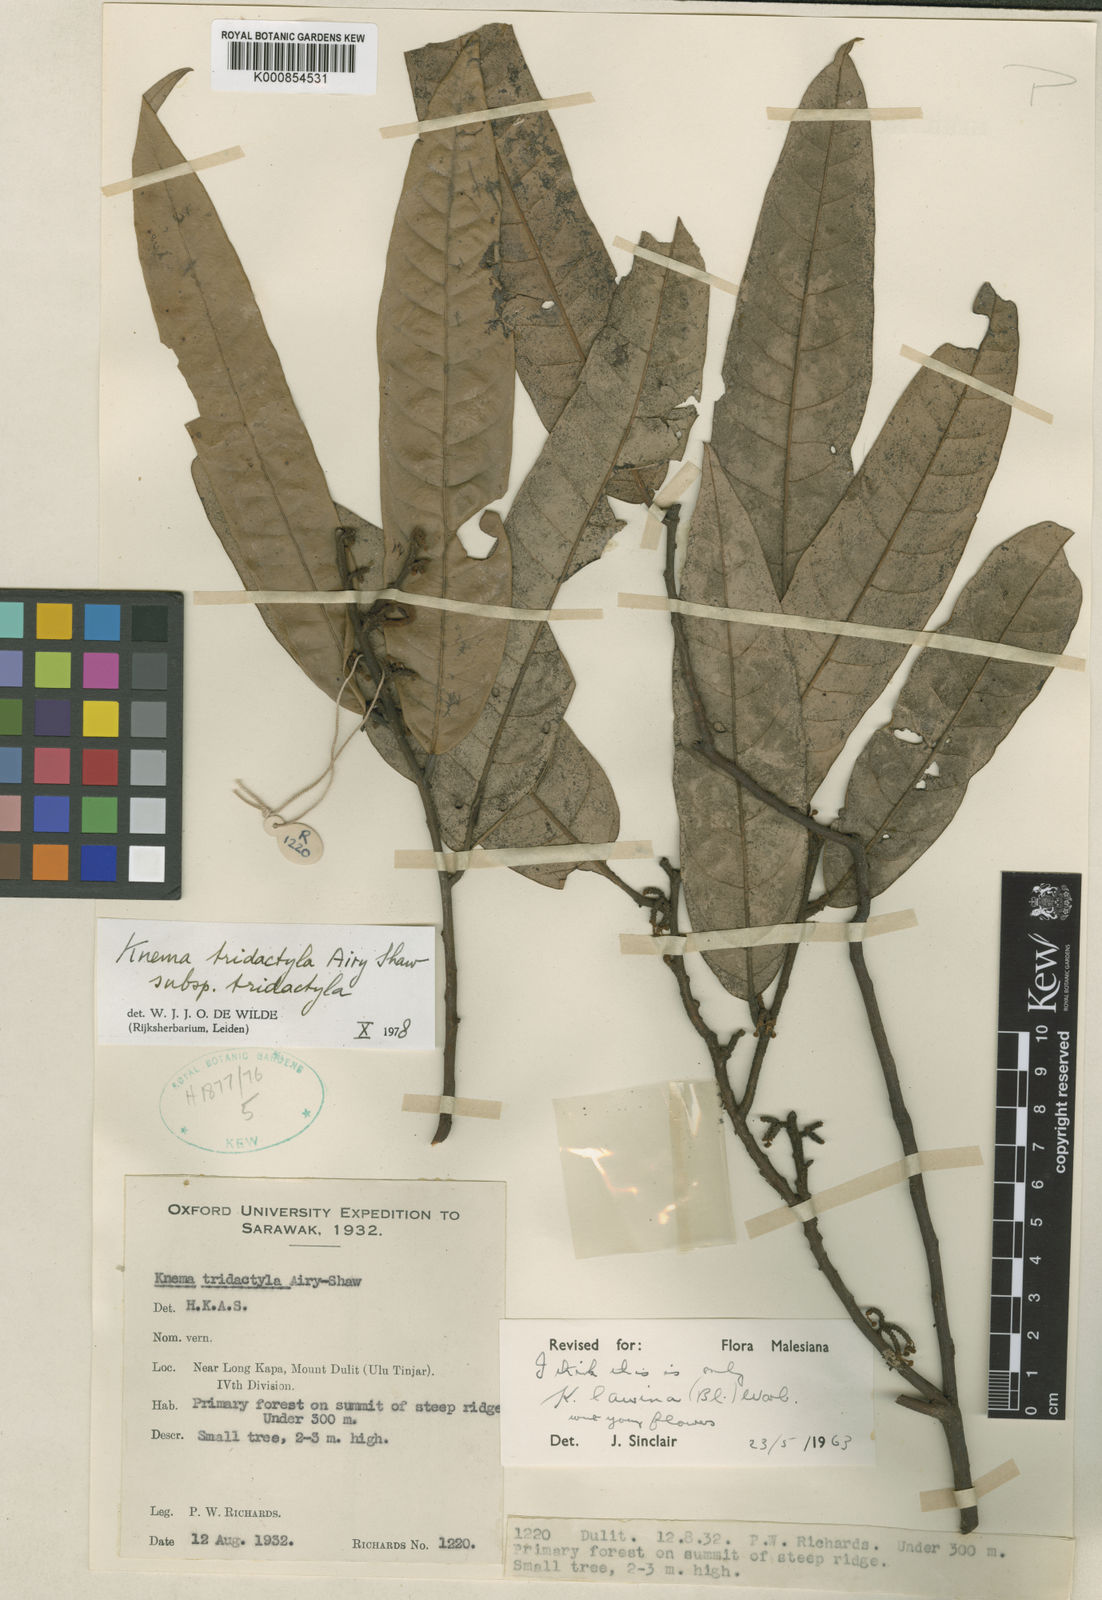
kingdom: Plantae
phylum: Tracheophyta
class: Magnoliopsida
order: Magnoliales
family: Myristicaceae
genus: Knema
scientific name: Knema tridactyla
